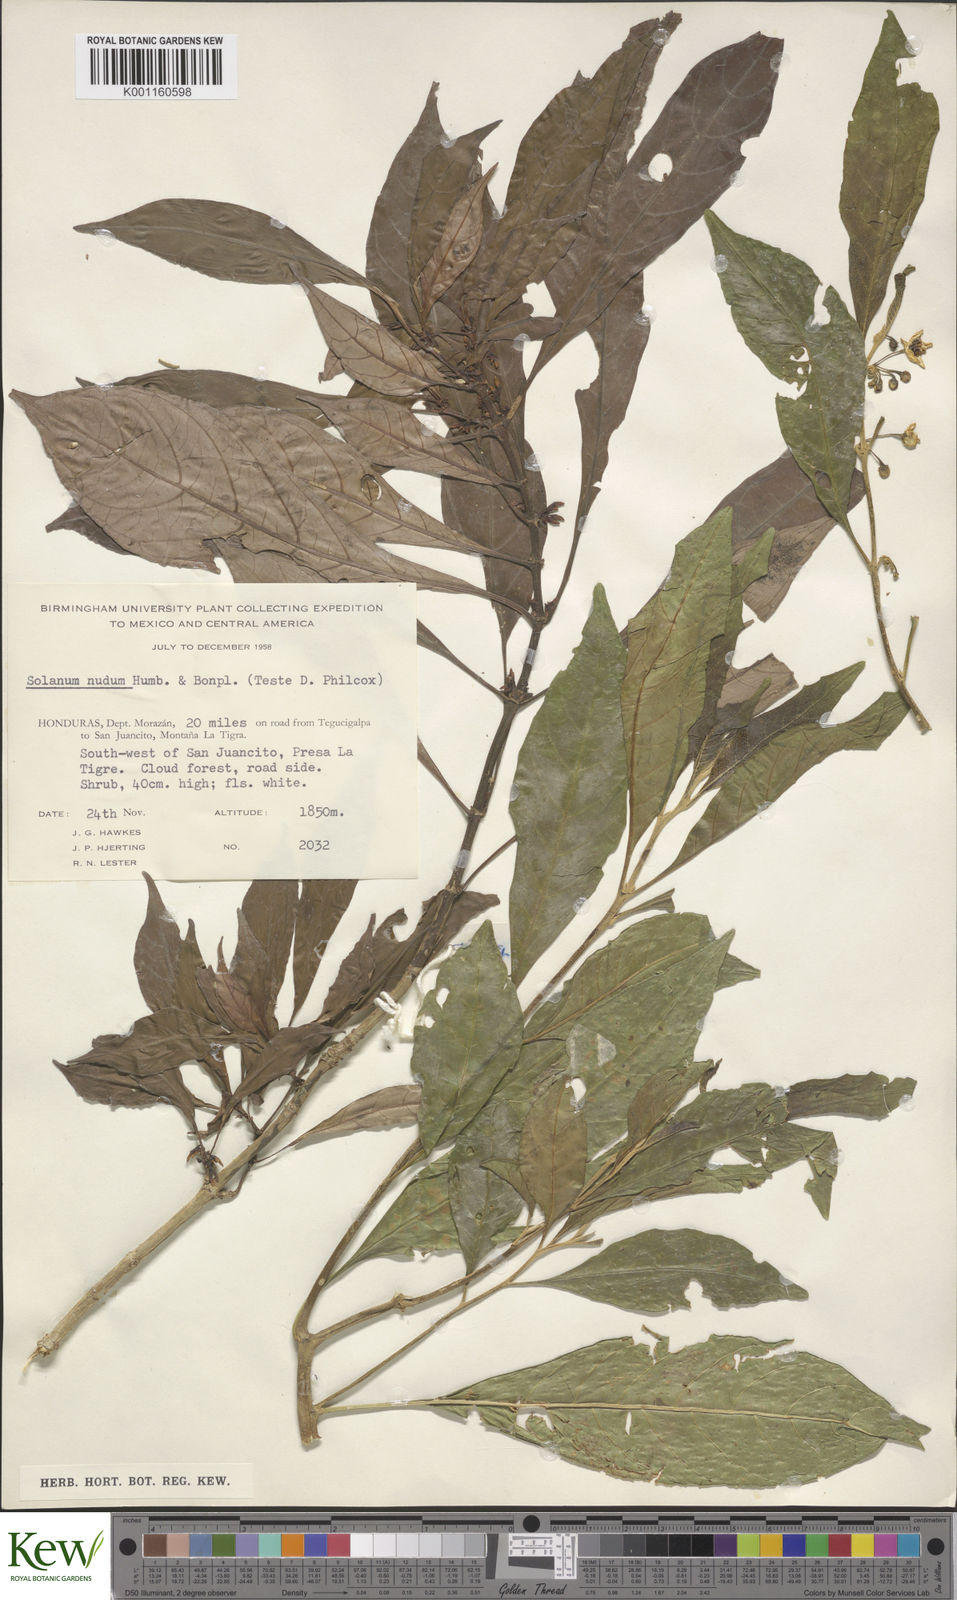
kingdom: Plantae
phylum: Tracheophyta
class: Magnoliopsida
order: Solanales
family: Solanaceae
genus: Solanum
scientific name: Solanum nudum
